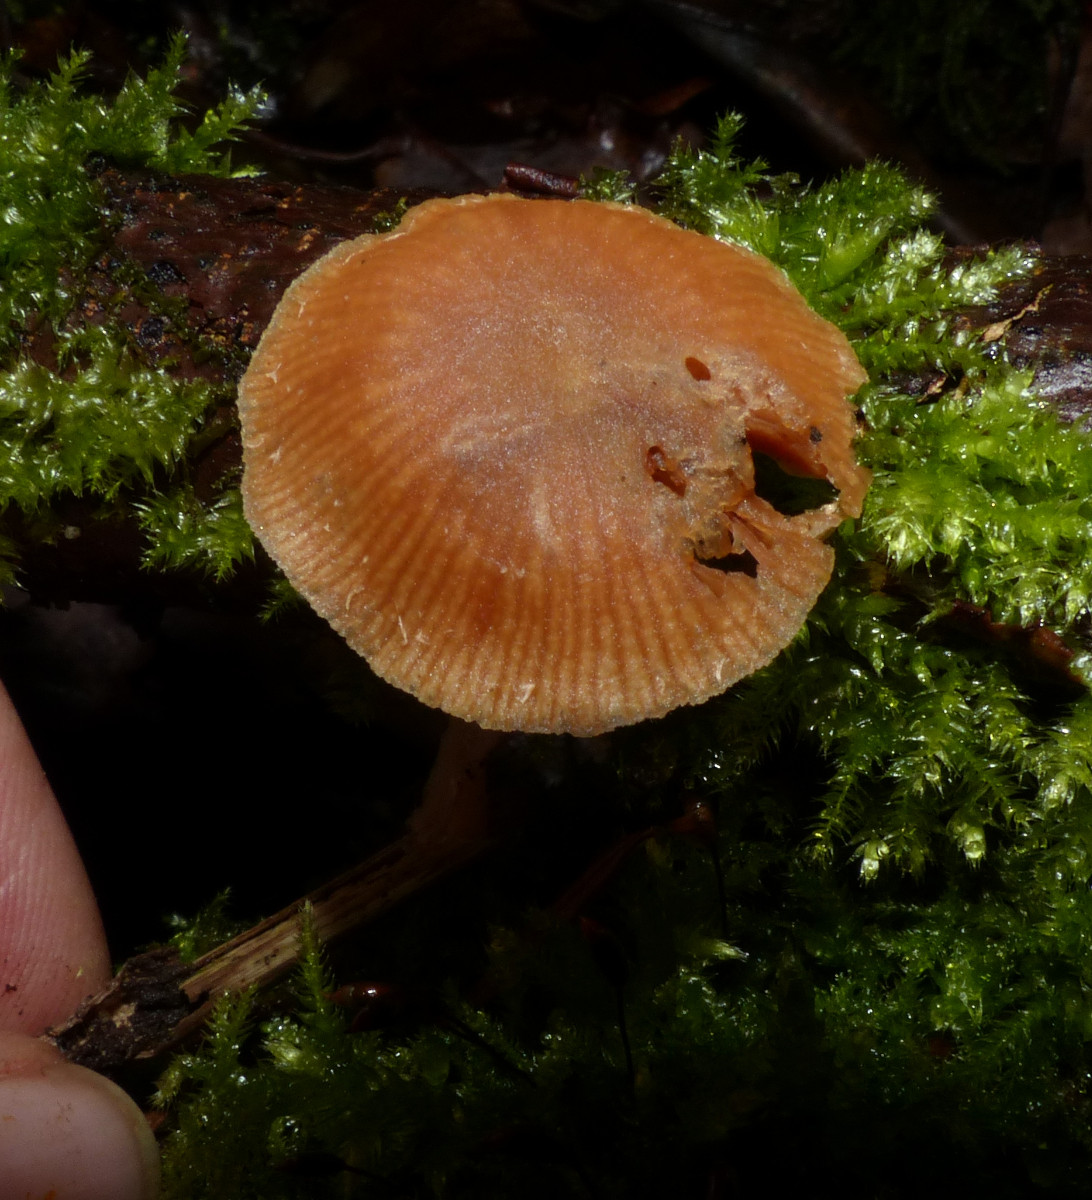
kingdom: Fungi
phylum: Basidiomycota
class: Agaricomycetes
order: Agaricales
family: Tubariaceae
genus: Tubaria
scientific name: Tubaria furfuracea
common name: kliddet fnughat
